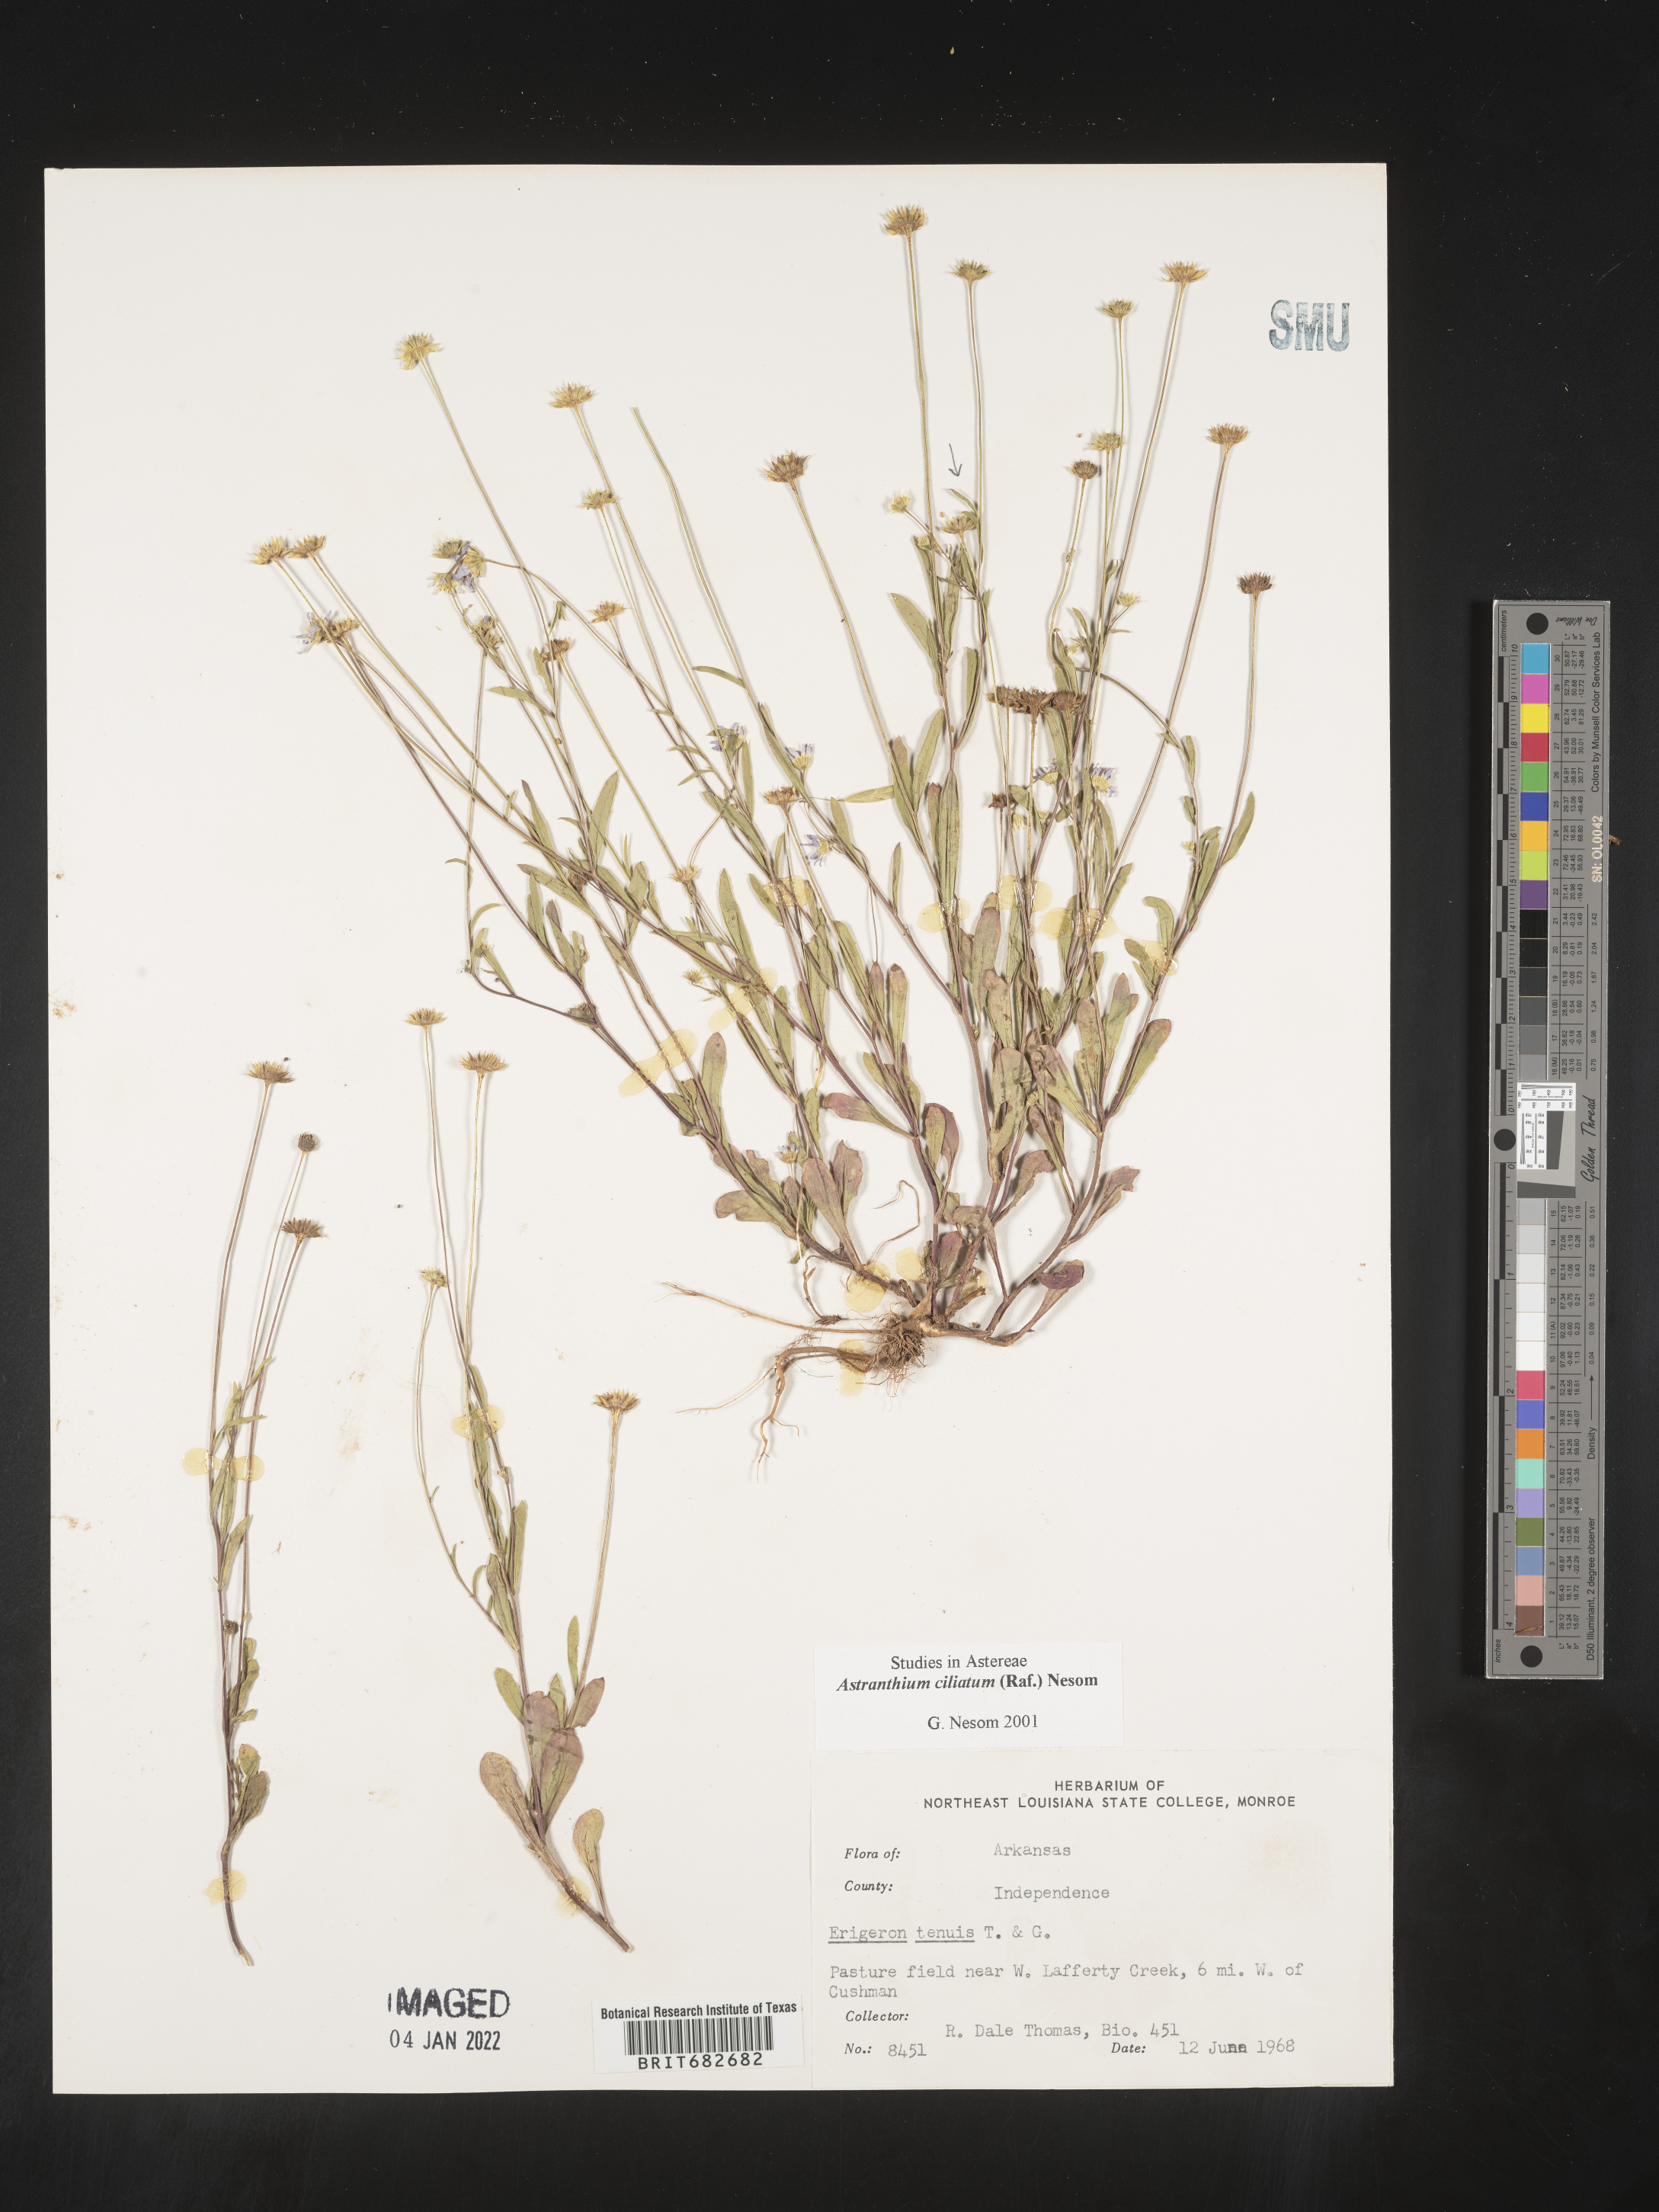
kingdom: Plantae
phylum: Tracheophyta
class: Magnoliopsida
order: Asterales
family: Asteraceae
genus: Astranthium
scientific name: Astranthium ciliatum
